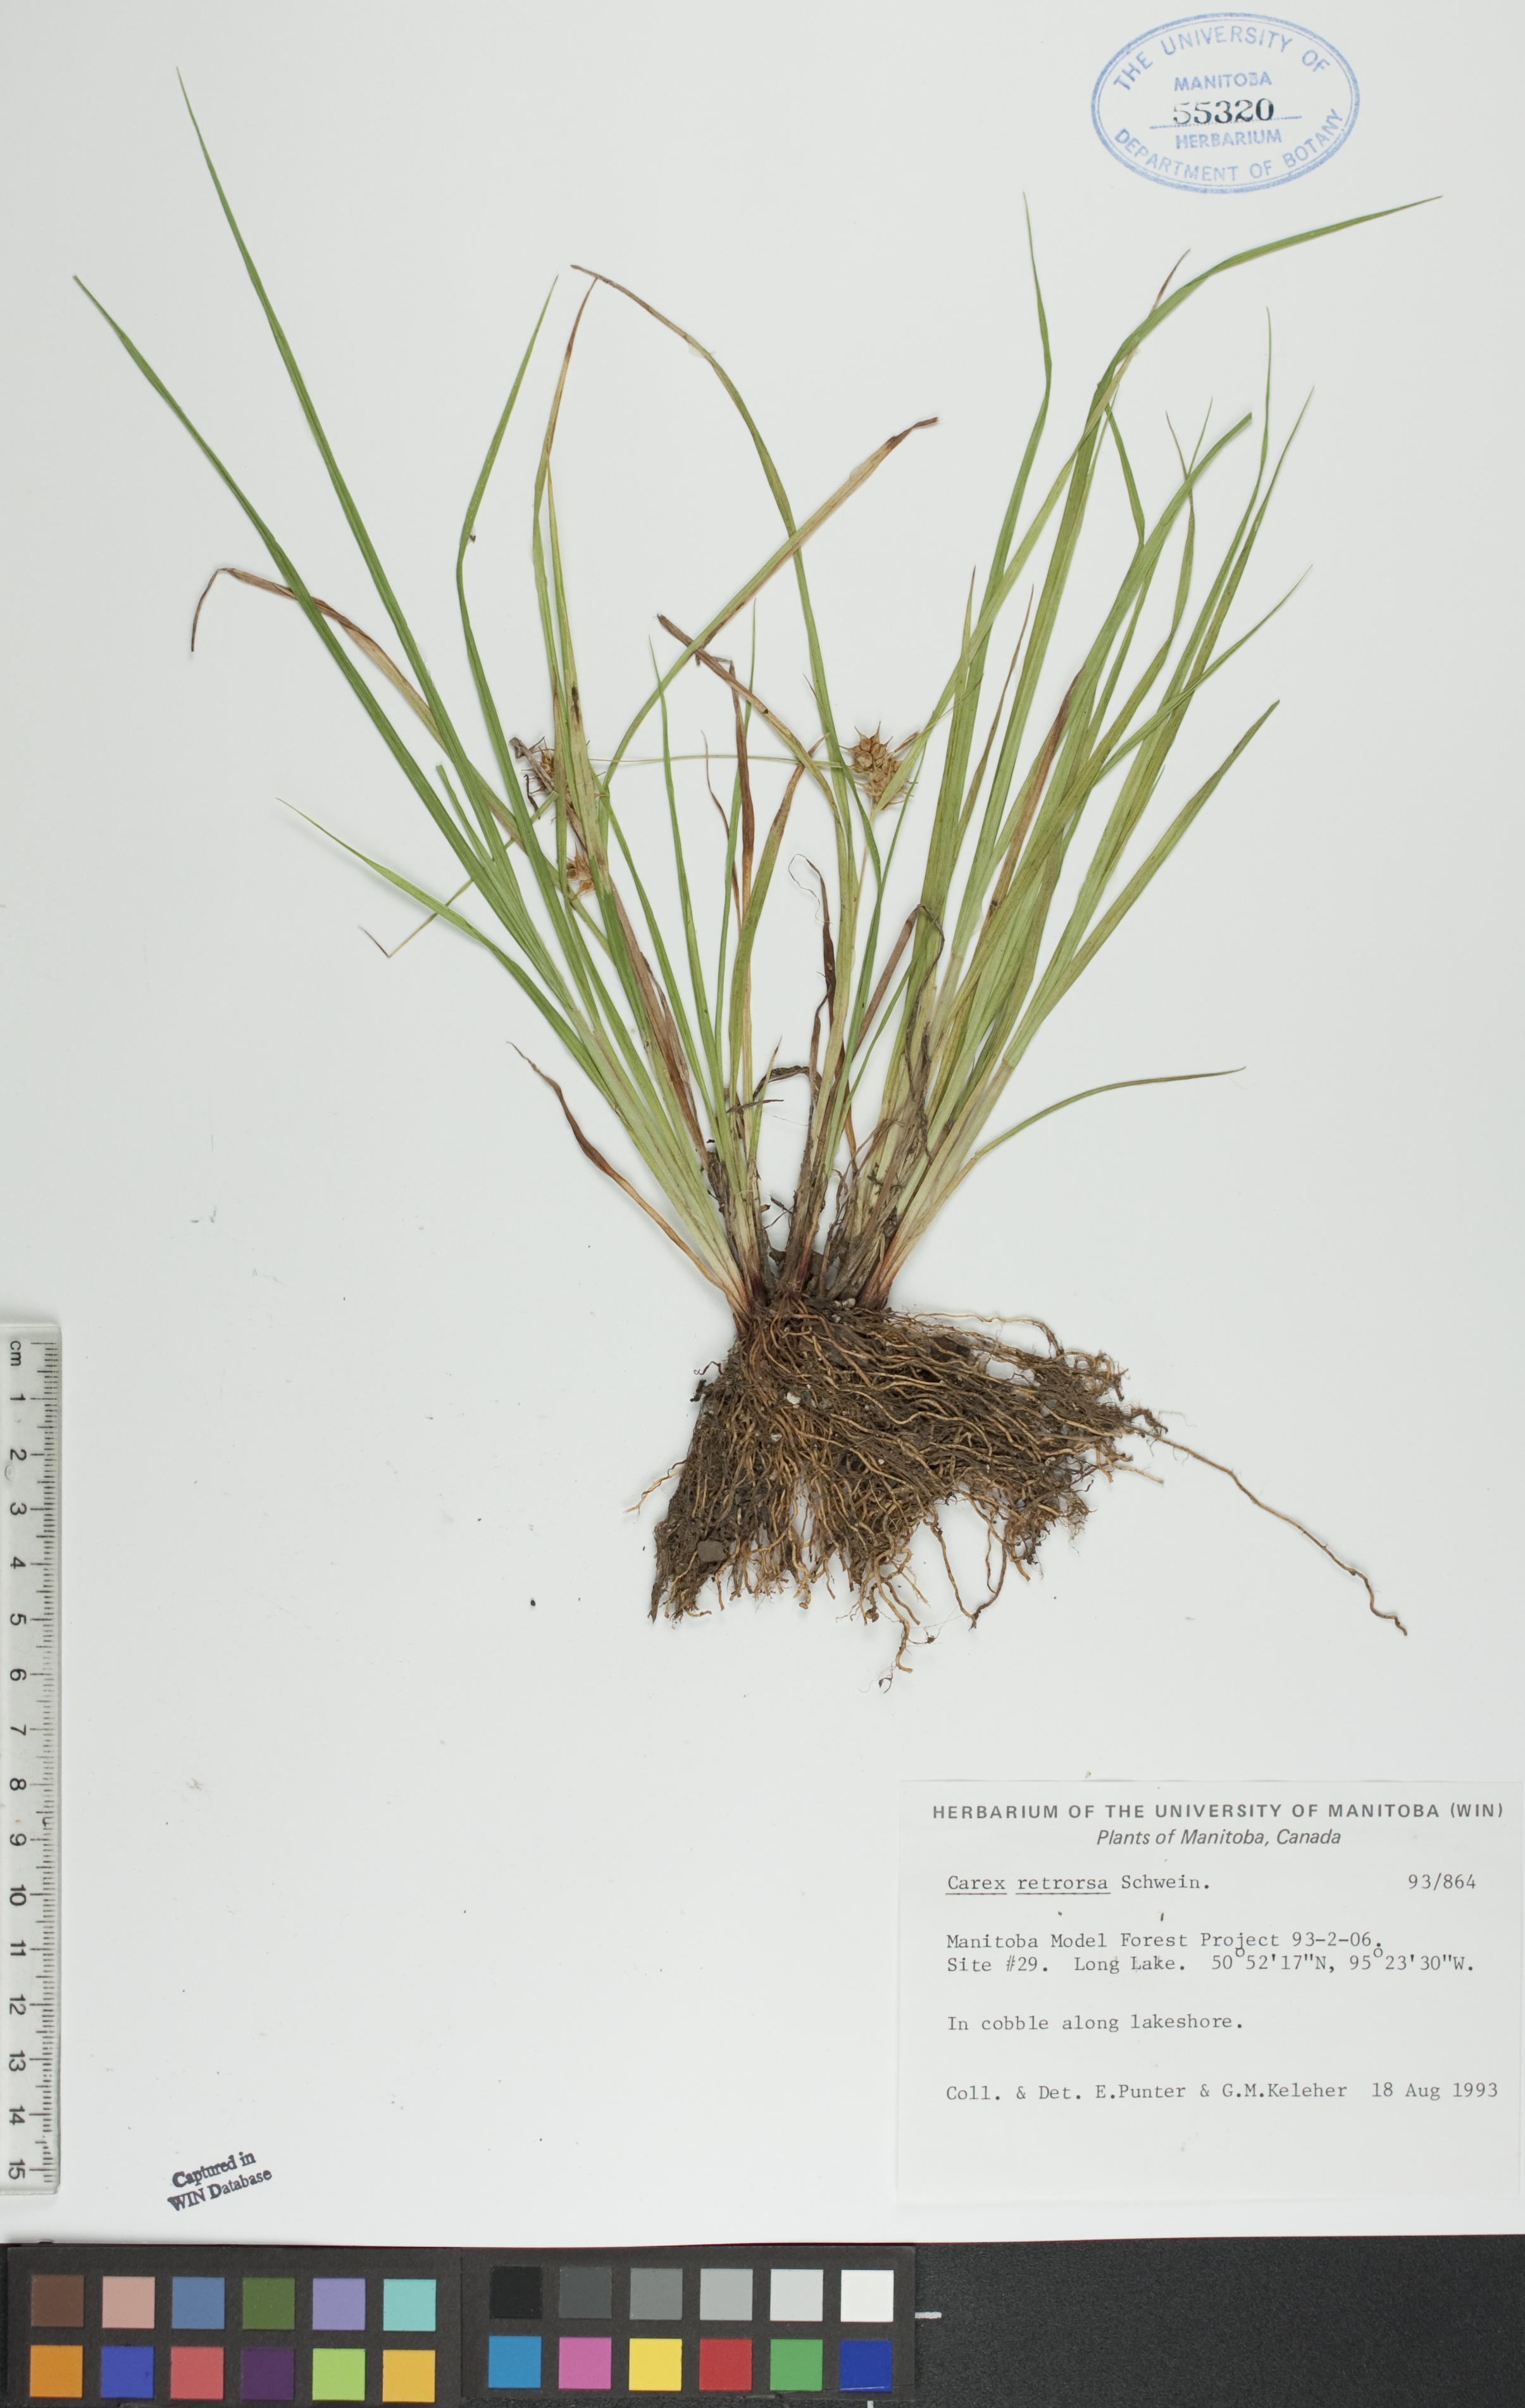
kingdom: Plantae
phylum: Tracheophyta
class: Liliopsida
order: Poales
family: Cyperaceae
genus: Carex
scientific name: Carex retrorsa
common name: Knot-sheath sedge
